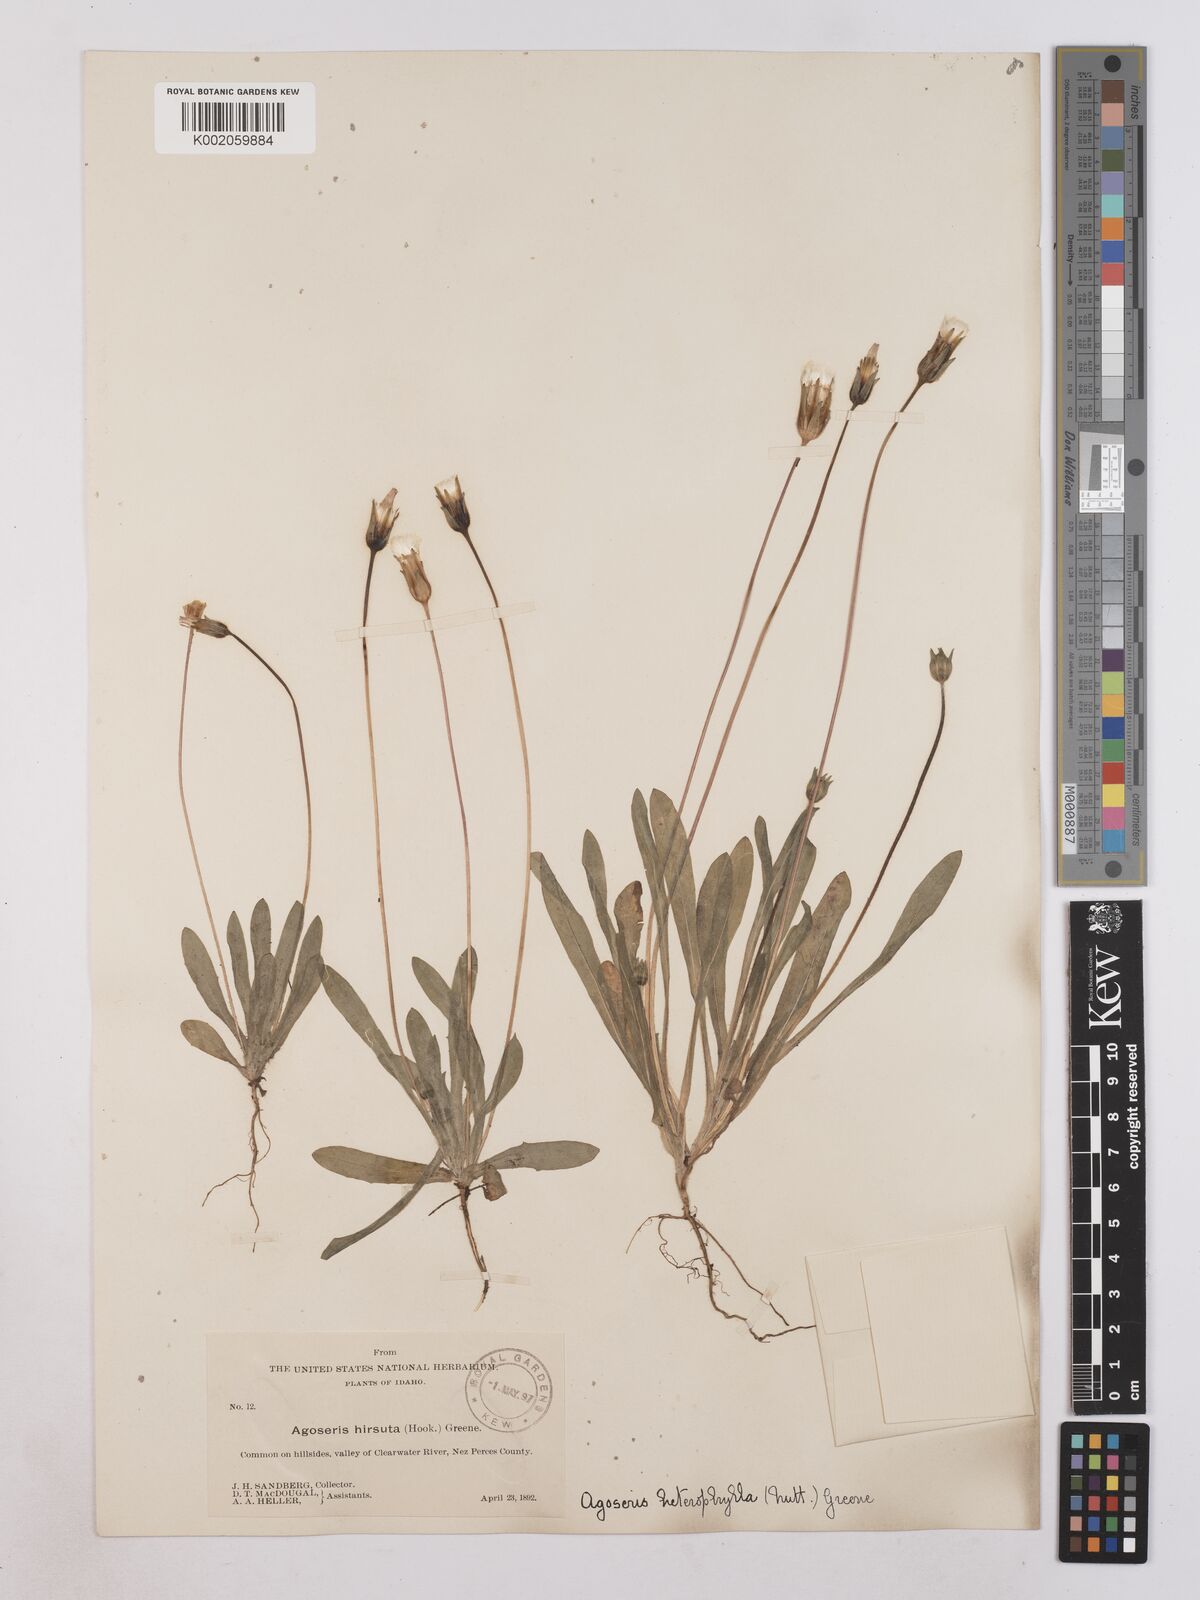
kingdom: Plantae
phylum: Tracheophyta
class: Magnoliopsida
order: Asterales
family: Asteraceae
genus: Agoseris
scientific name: Agoseris heterophylla
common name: Annual agoseris
